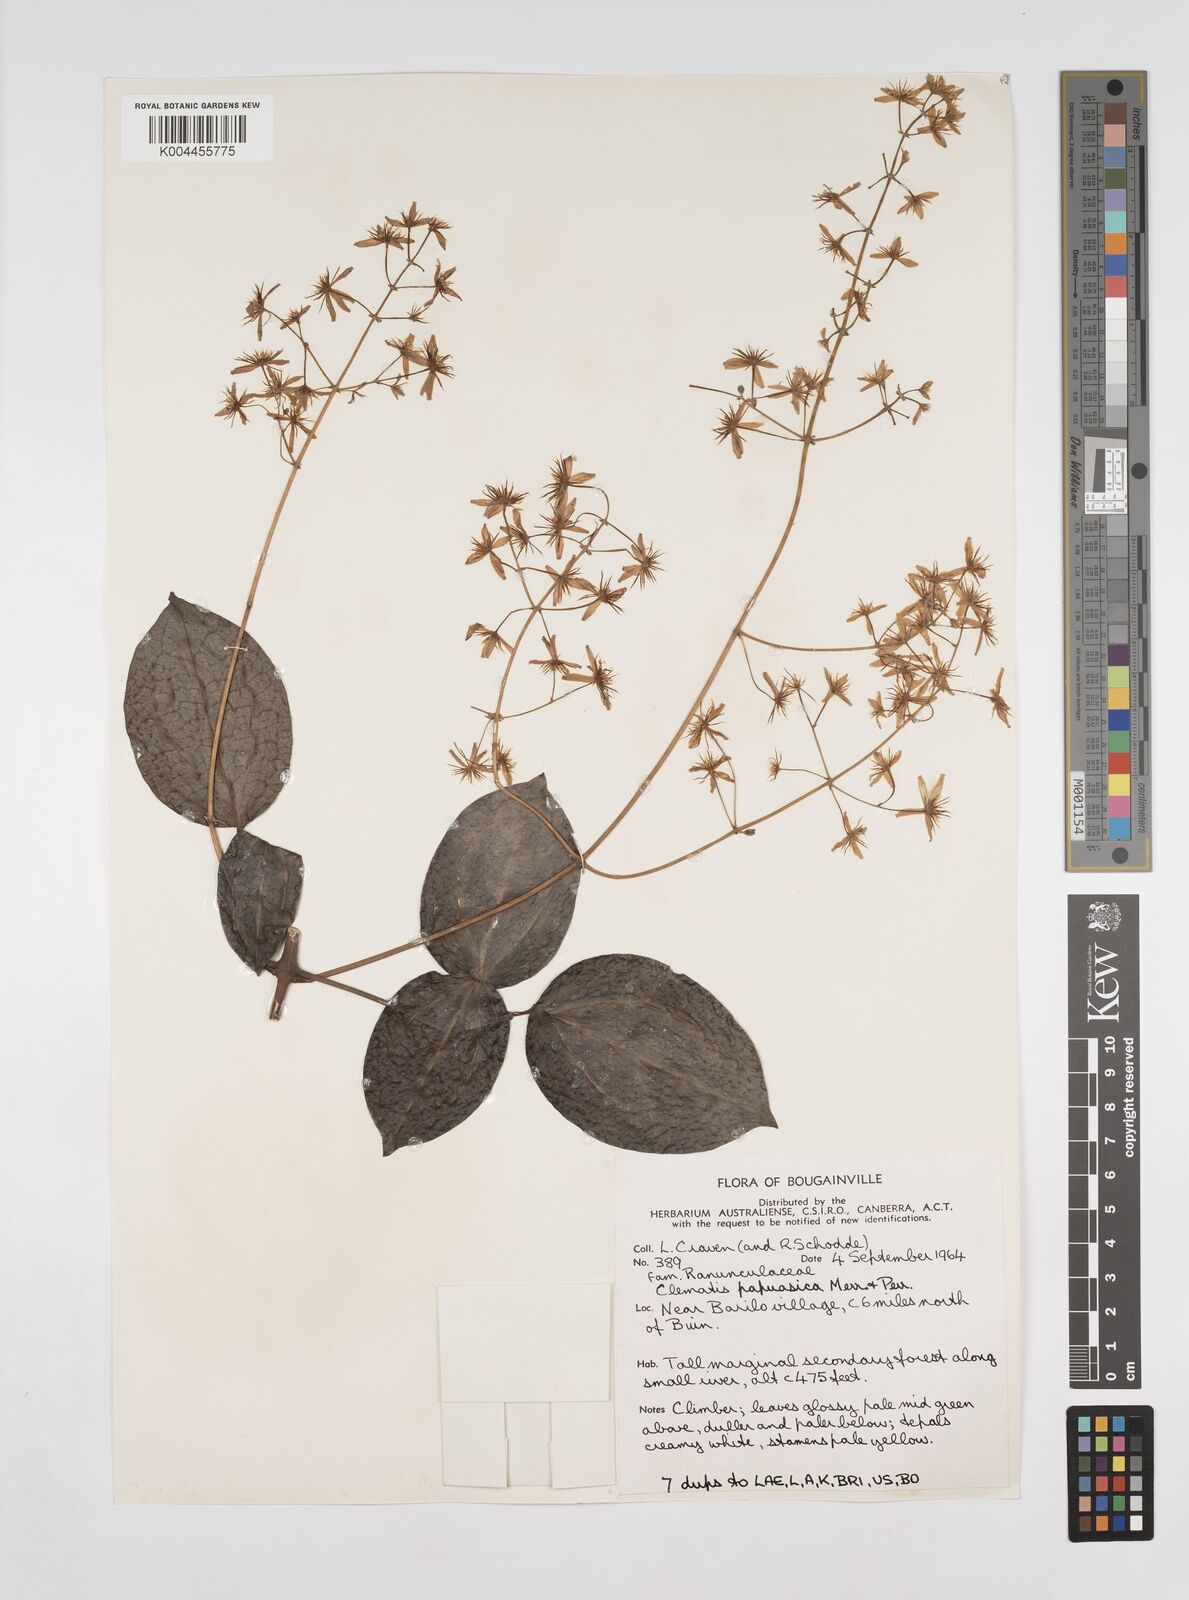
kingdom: Plantae
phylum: Tracheophyta
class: Magnoliopsida
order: Ranunculales
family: Ranunculaceae
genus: Clematis
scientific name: Clematis papuasica
